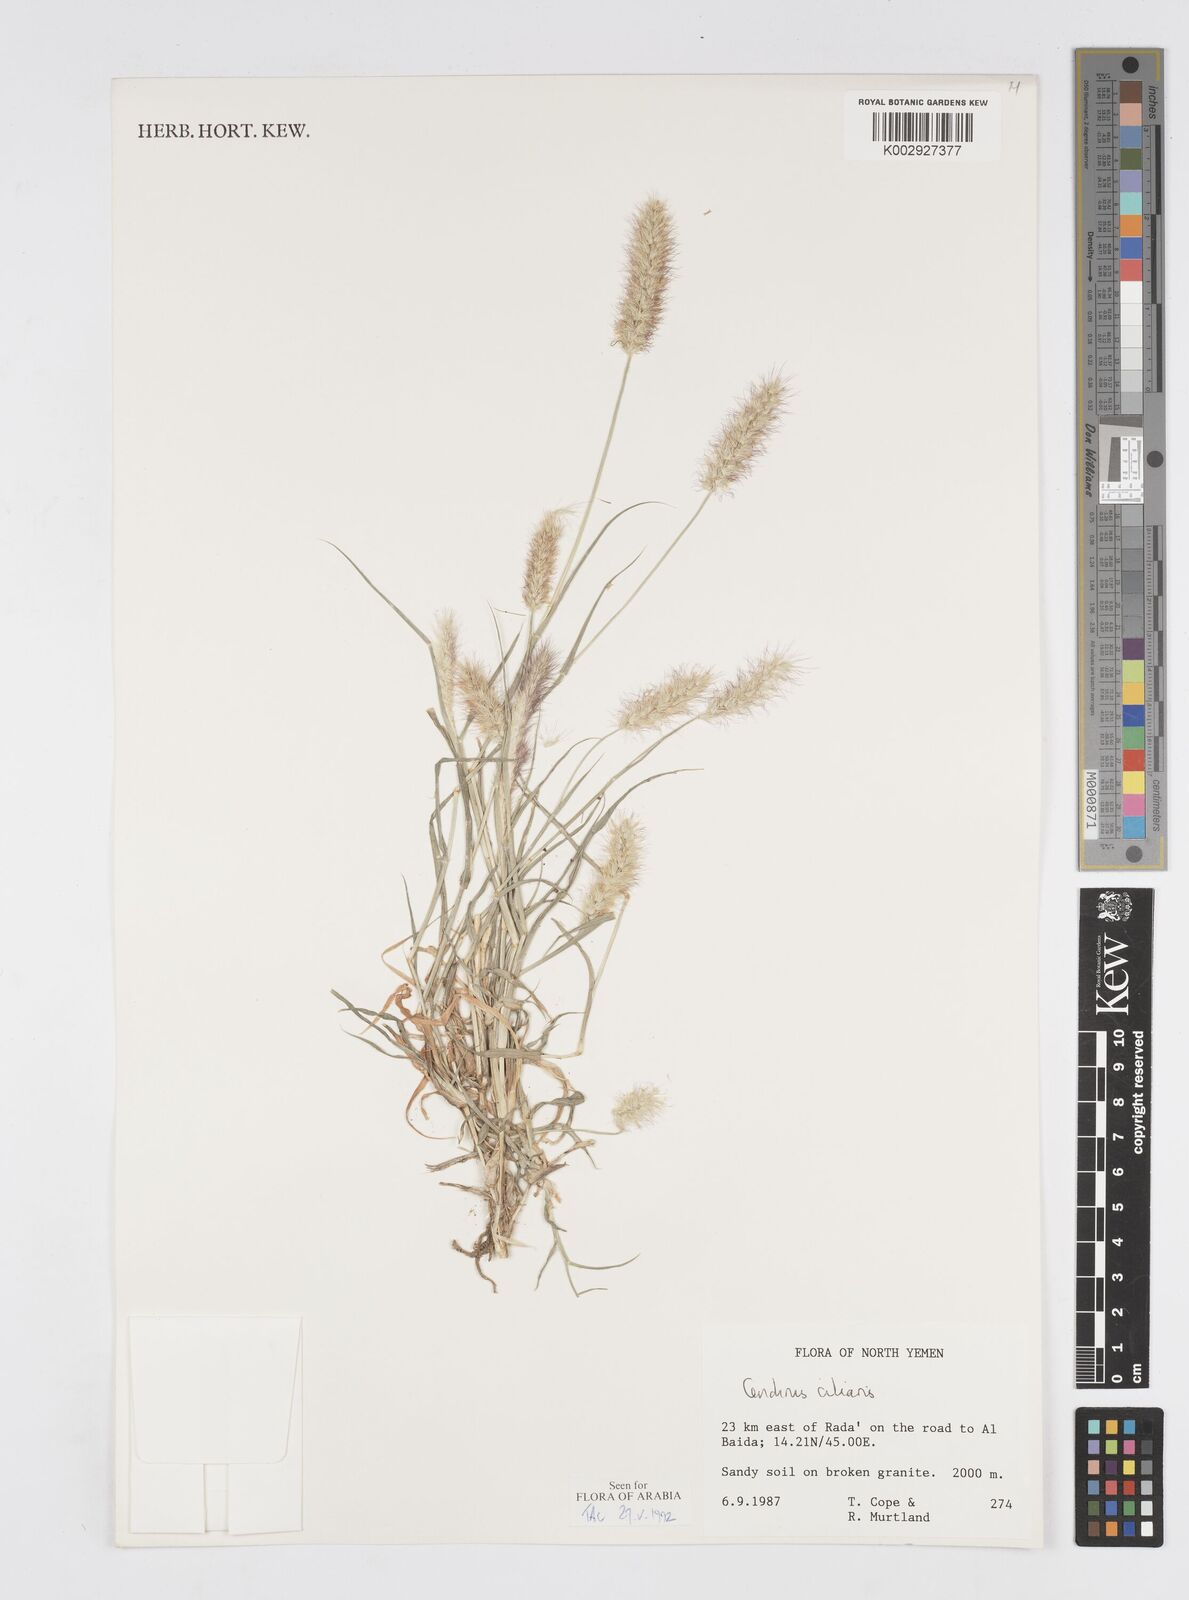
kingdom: Plantae
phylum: Tracheophyta
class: Liliopsida
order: Poales
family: Poaceae
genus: Cenchrus
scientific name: Cenchrus ciliaris
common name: Buffelgrass
